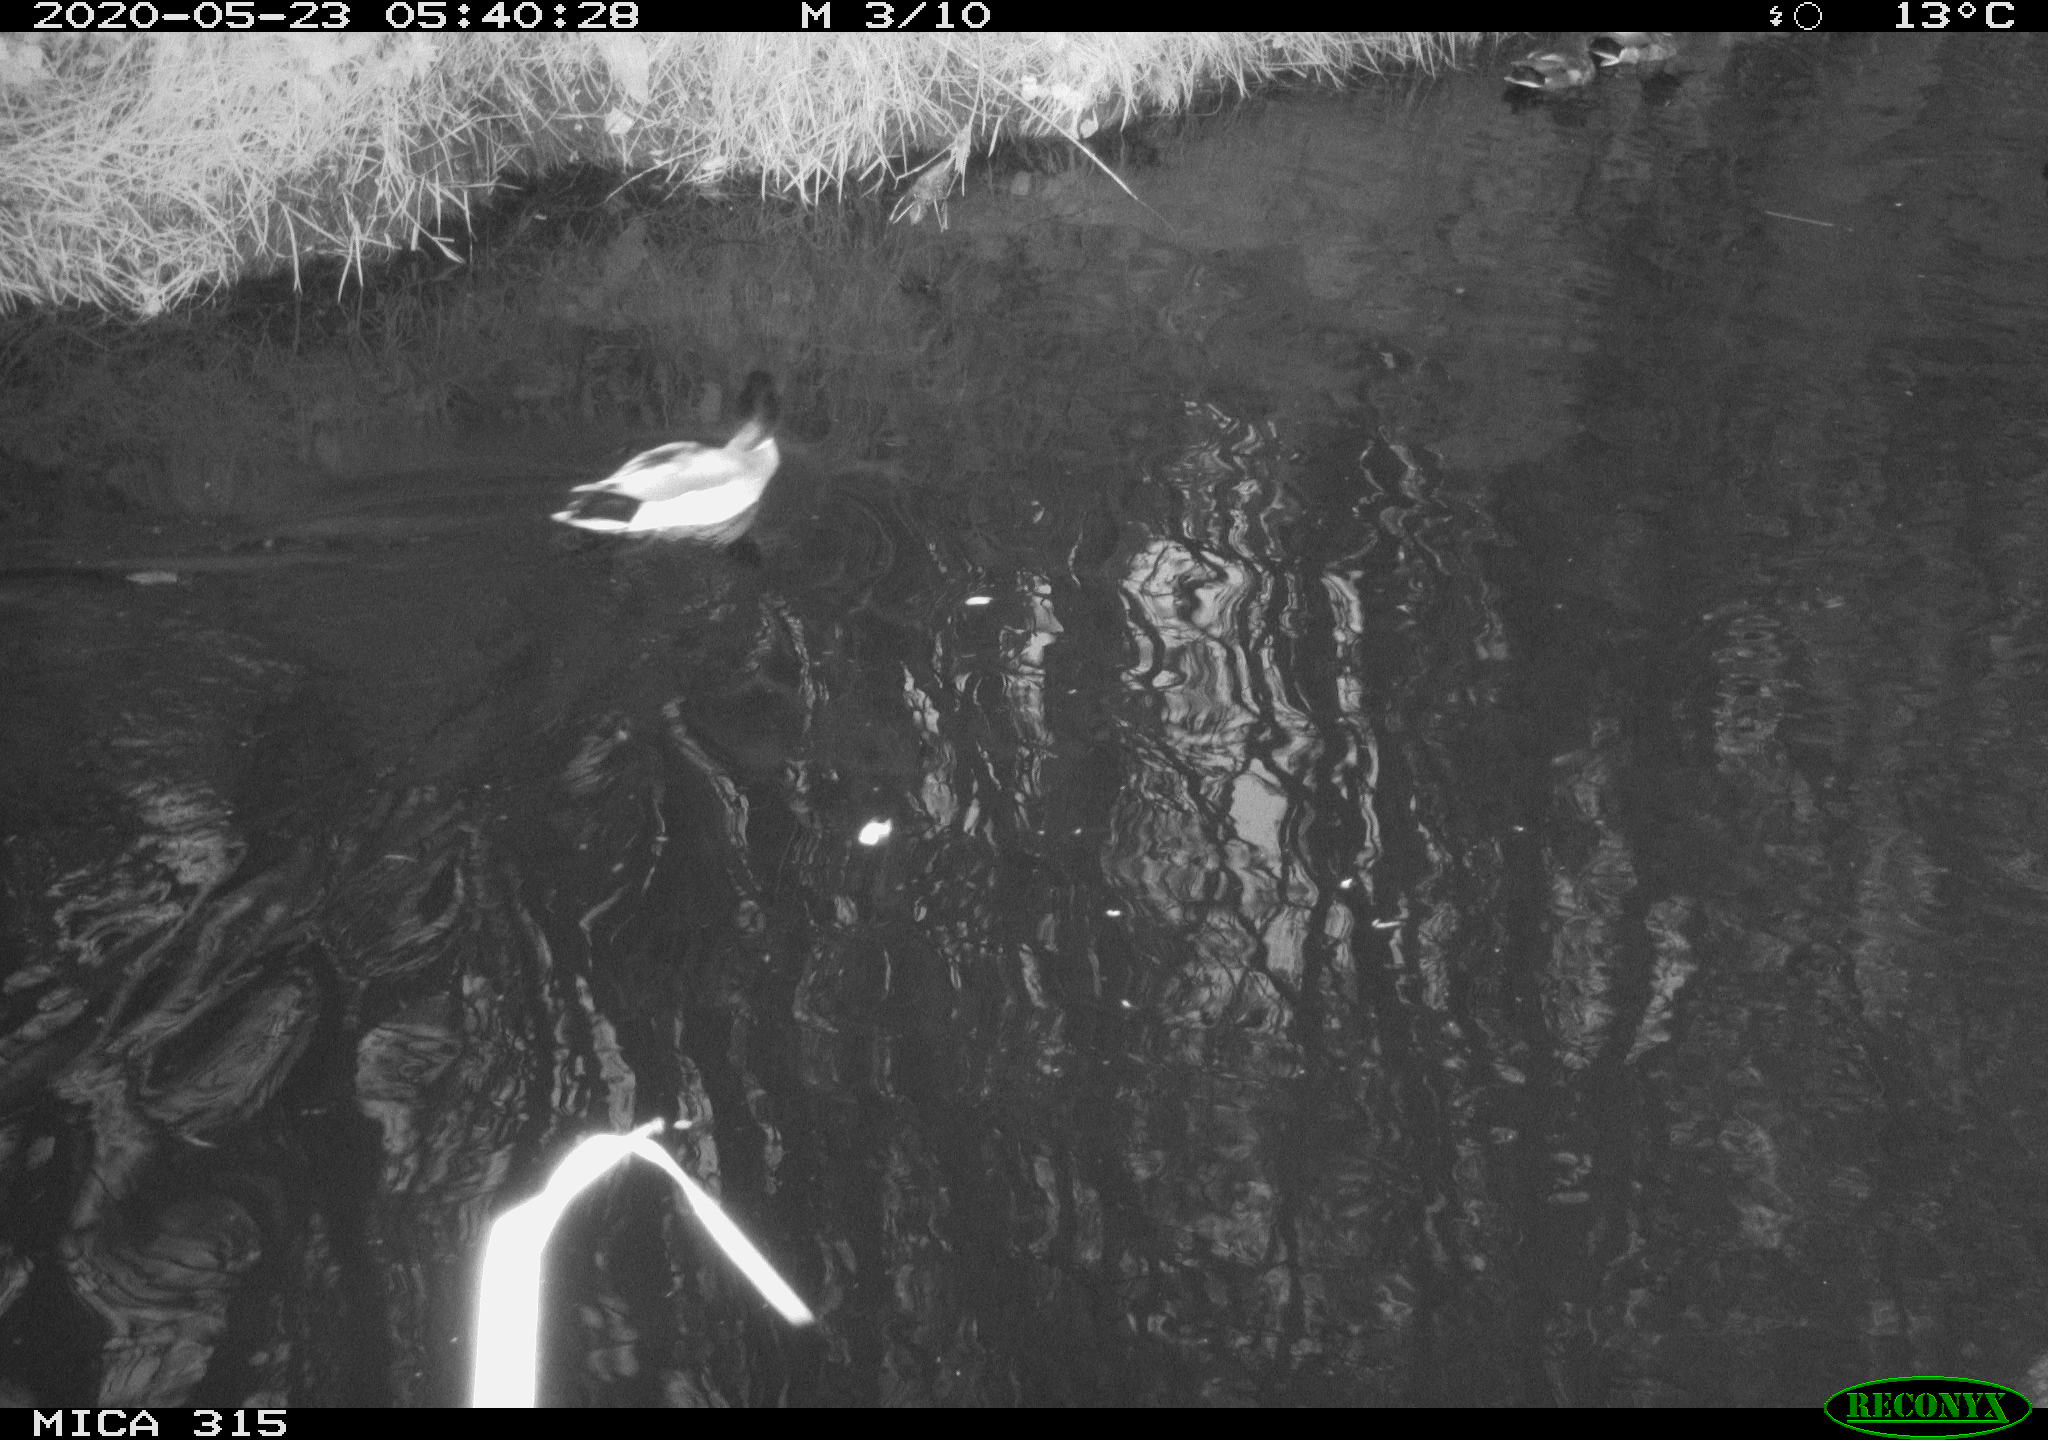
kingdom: Animalia
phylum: Chordata
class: Aves
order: Anseriformes
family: Anatidae
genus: Anas
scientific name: Anas platyrhynchos
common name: Mallard
